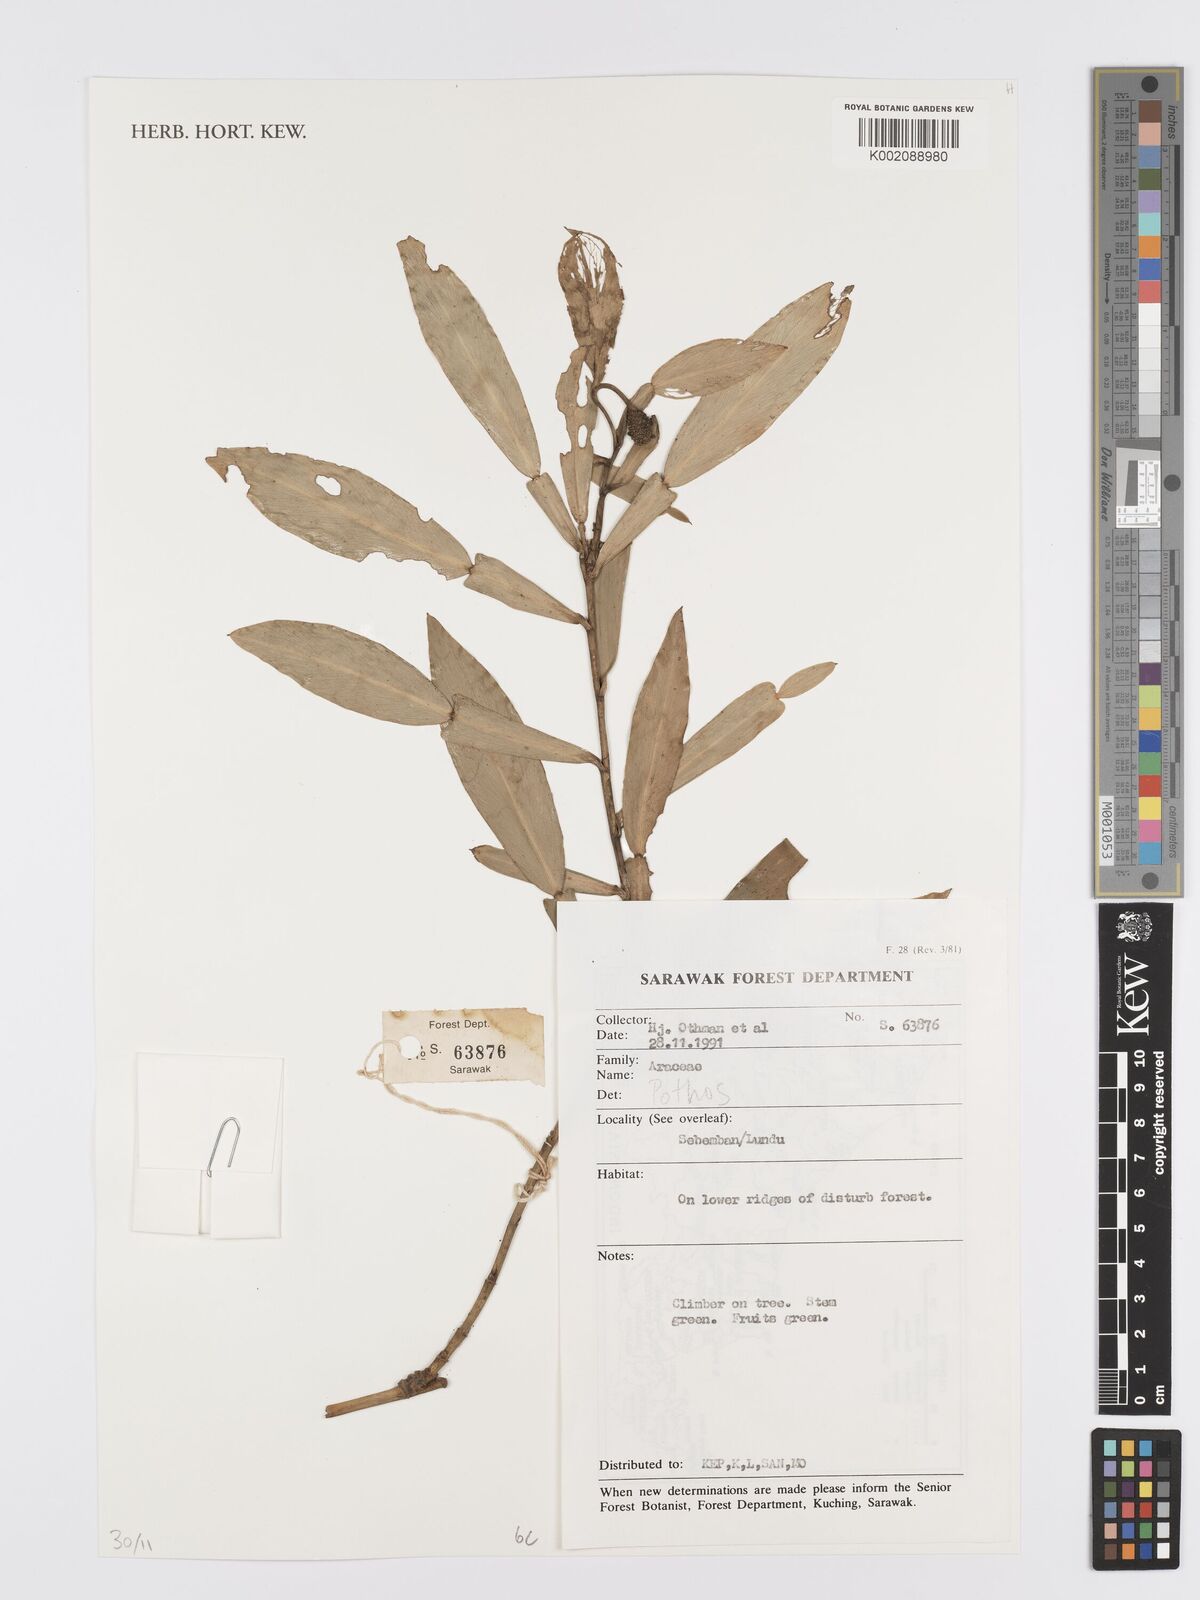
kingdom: Plantae
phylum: Tracheophyta
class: Liliopsida
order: Alismatales
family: Araceae
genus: Pothos
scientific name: Pothos
